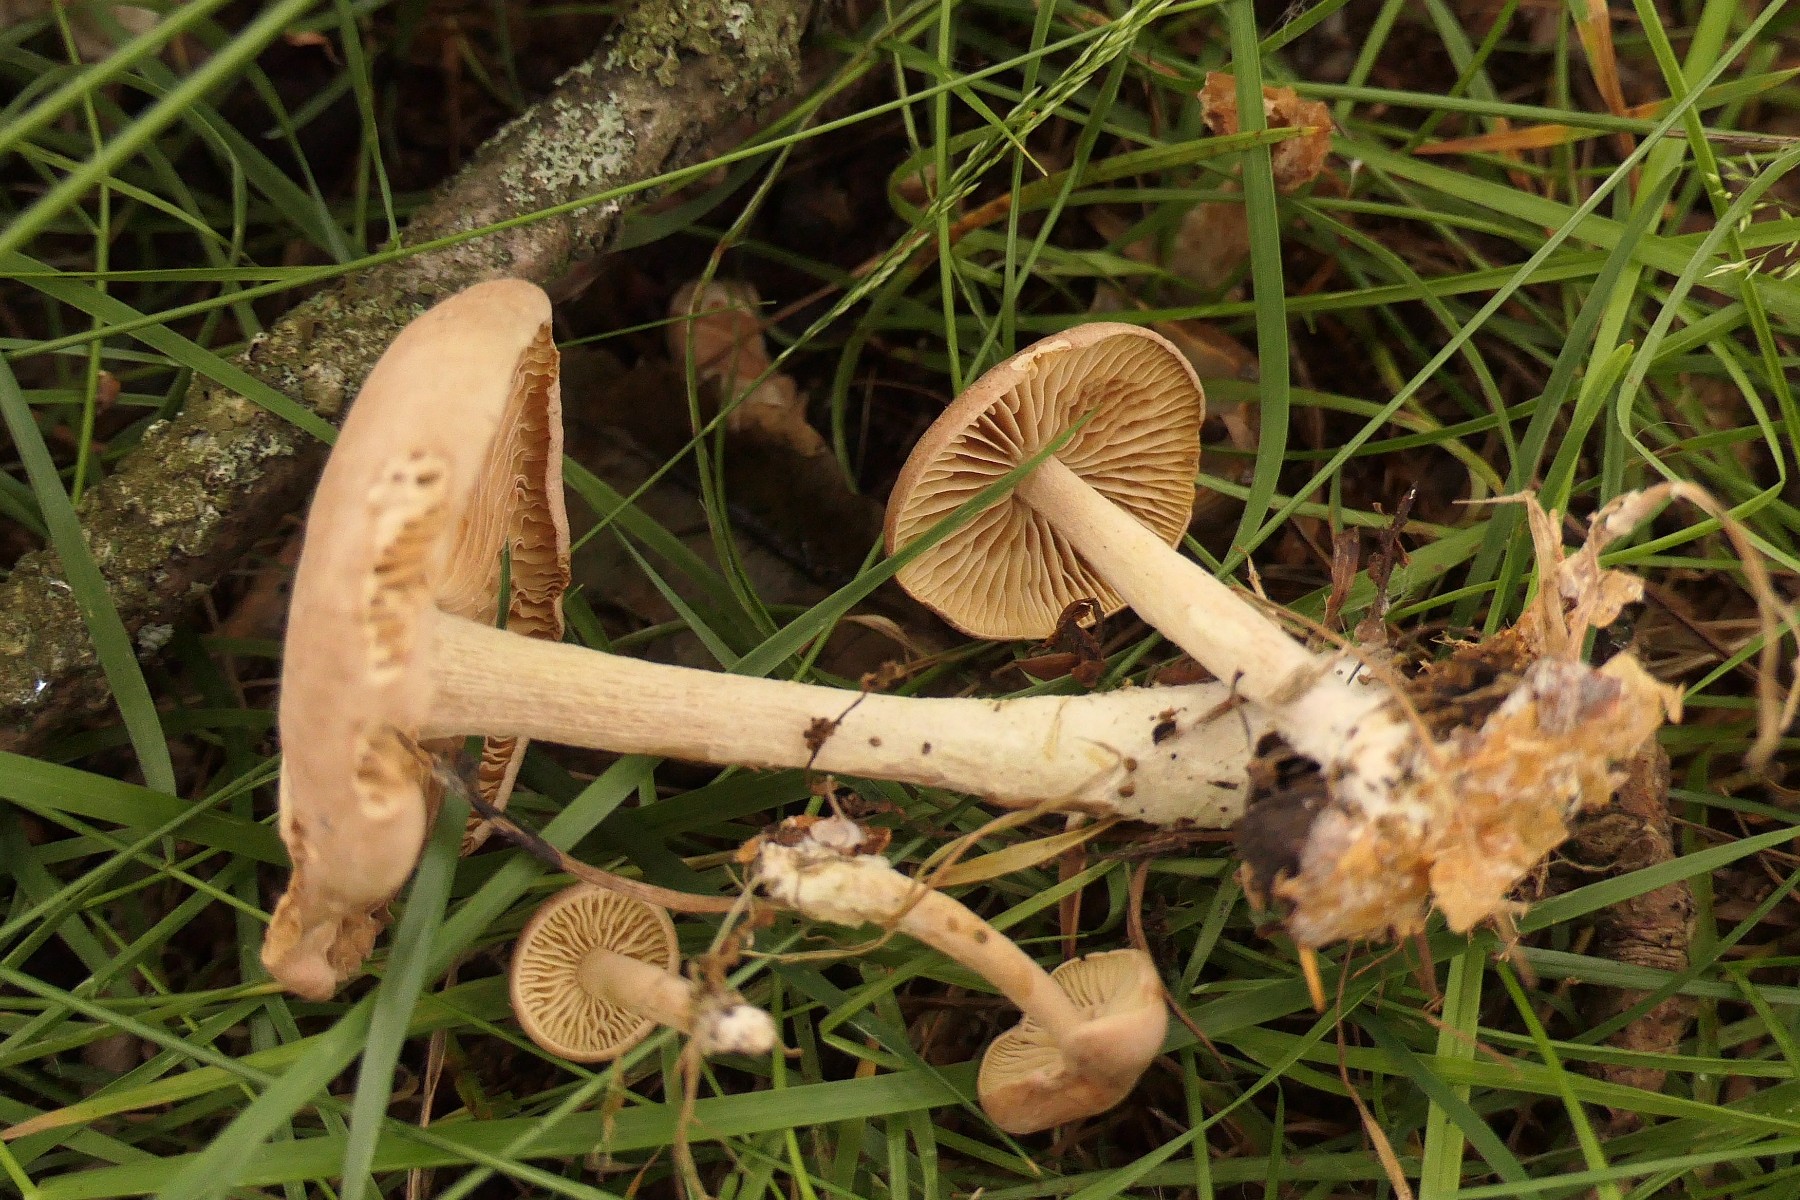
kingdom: Fungi
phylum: Basidiomycota
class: Agaricomycetes
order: Agaricales
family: Omphalotaceae
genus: Collybiopsis
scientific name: Collybiopsis peronata
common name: bestøvlet fladhat
